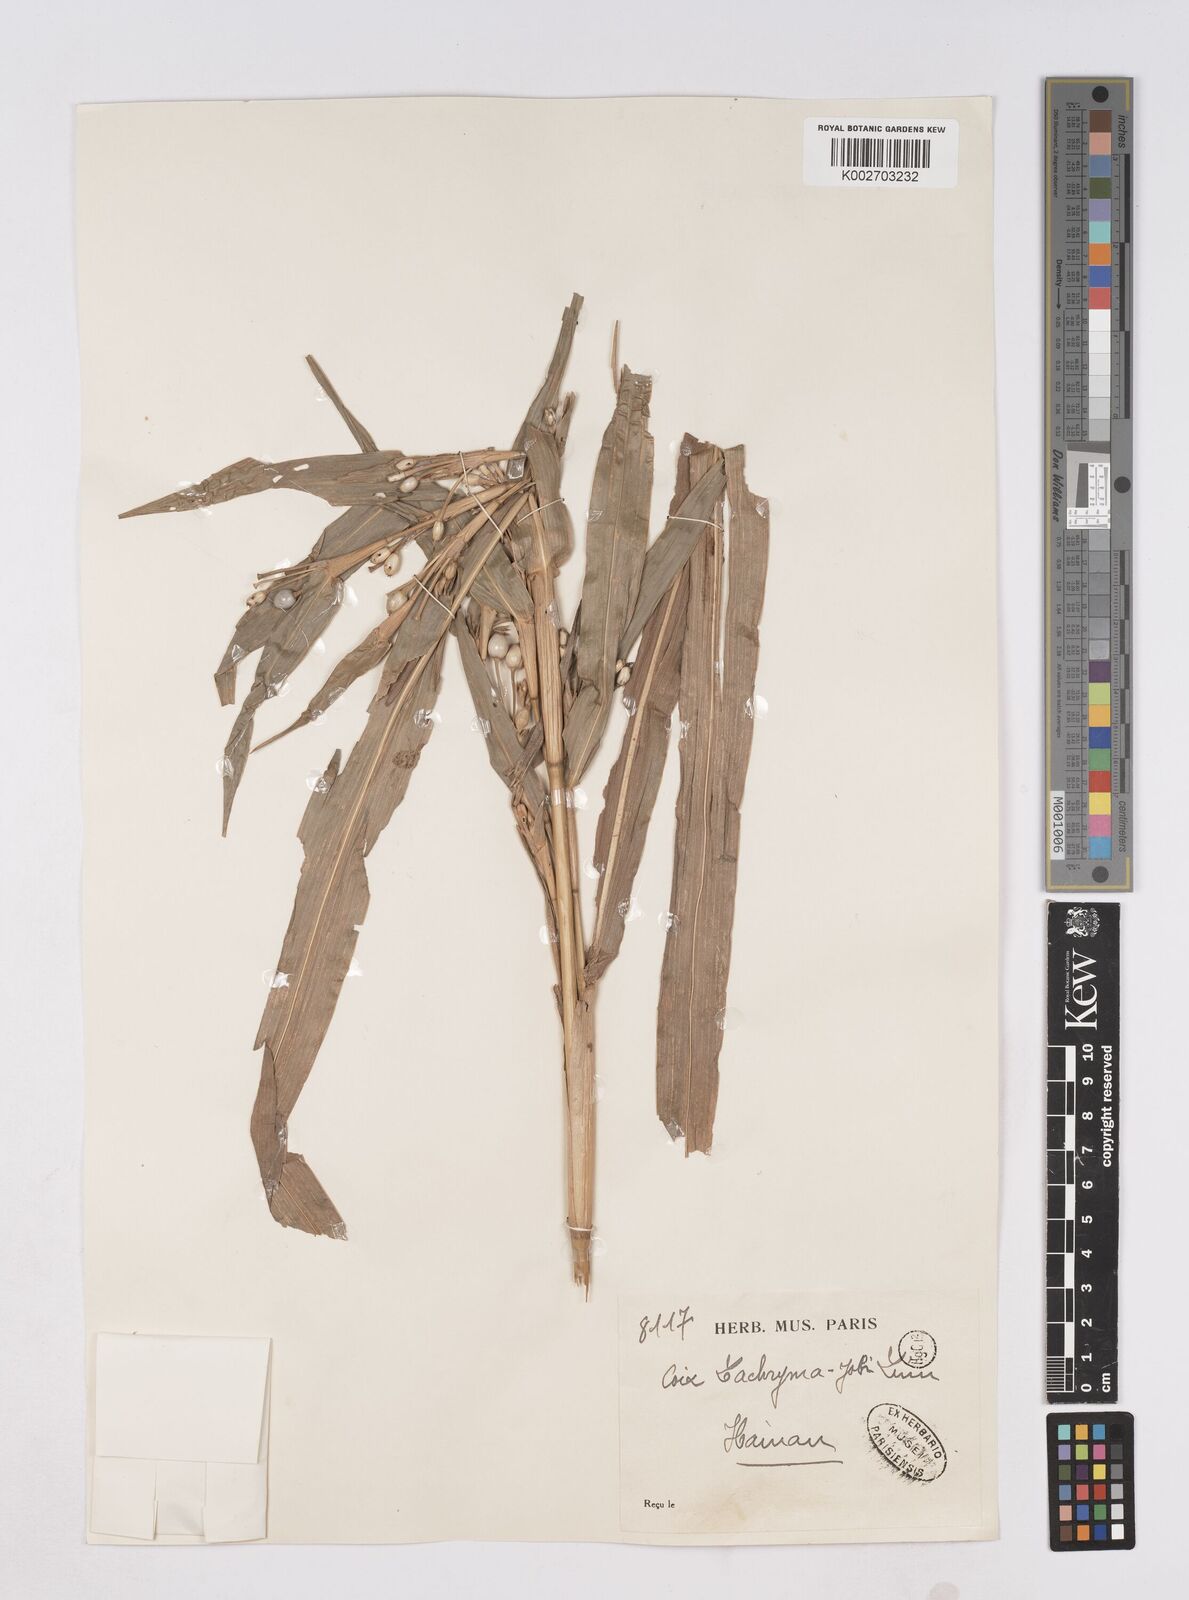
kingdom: Plantae
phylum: Tracheophyta
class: Liliopsida
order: Poales
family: Poaceae
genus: Coix
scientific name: Coix lacryma-jobi
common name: Job's tears
